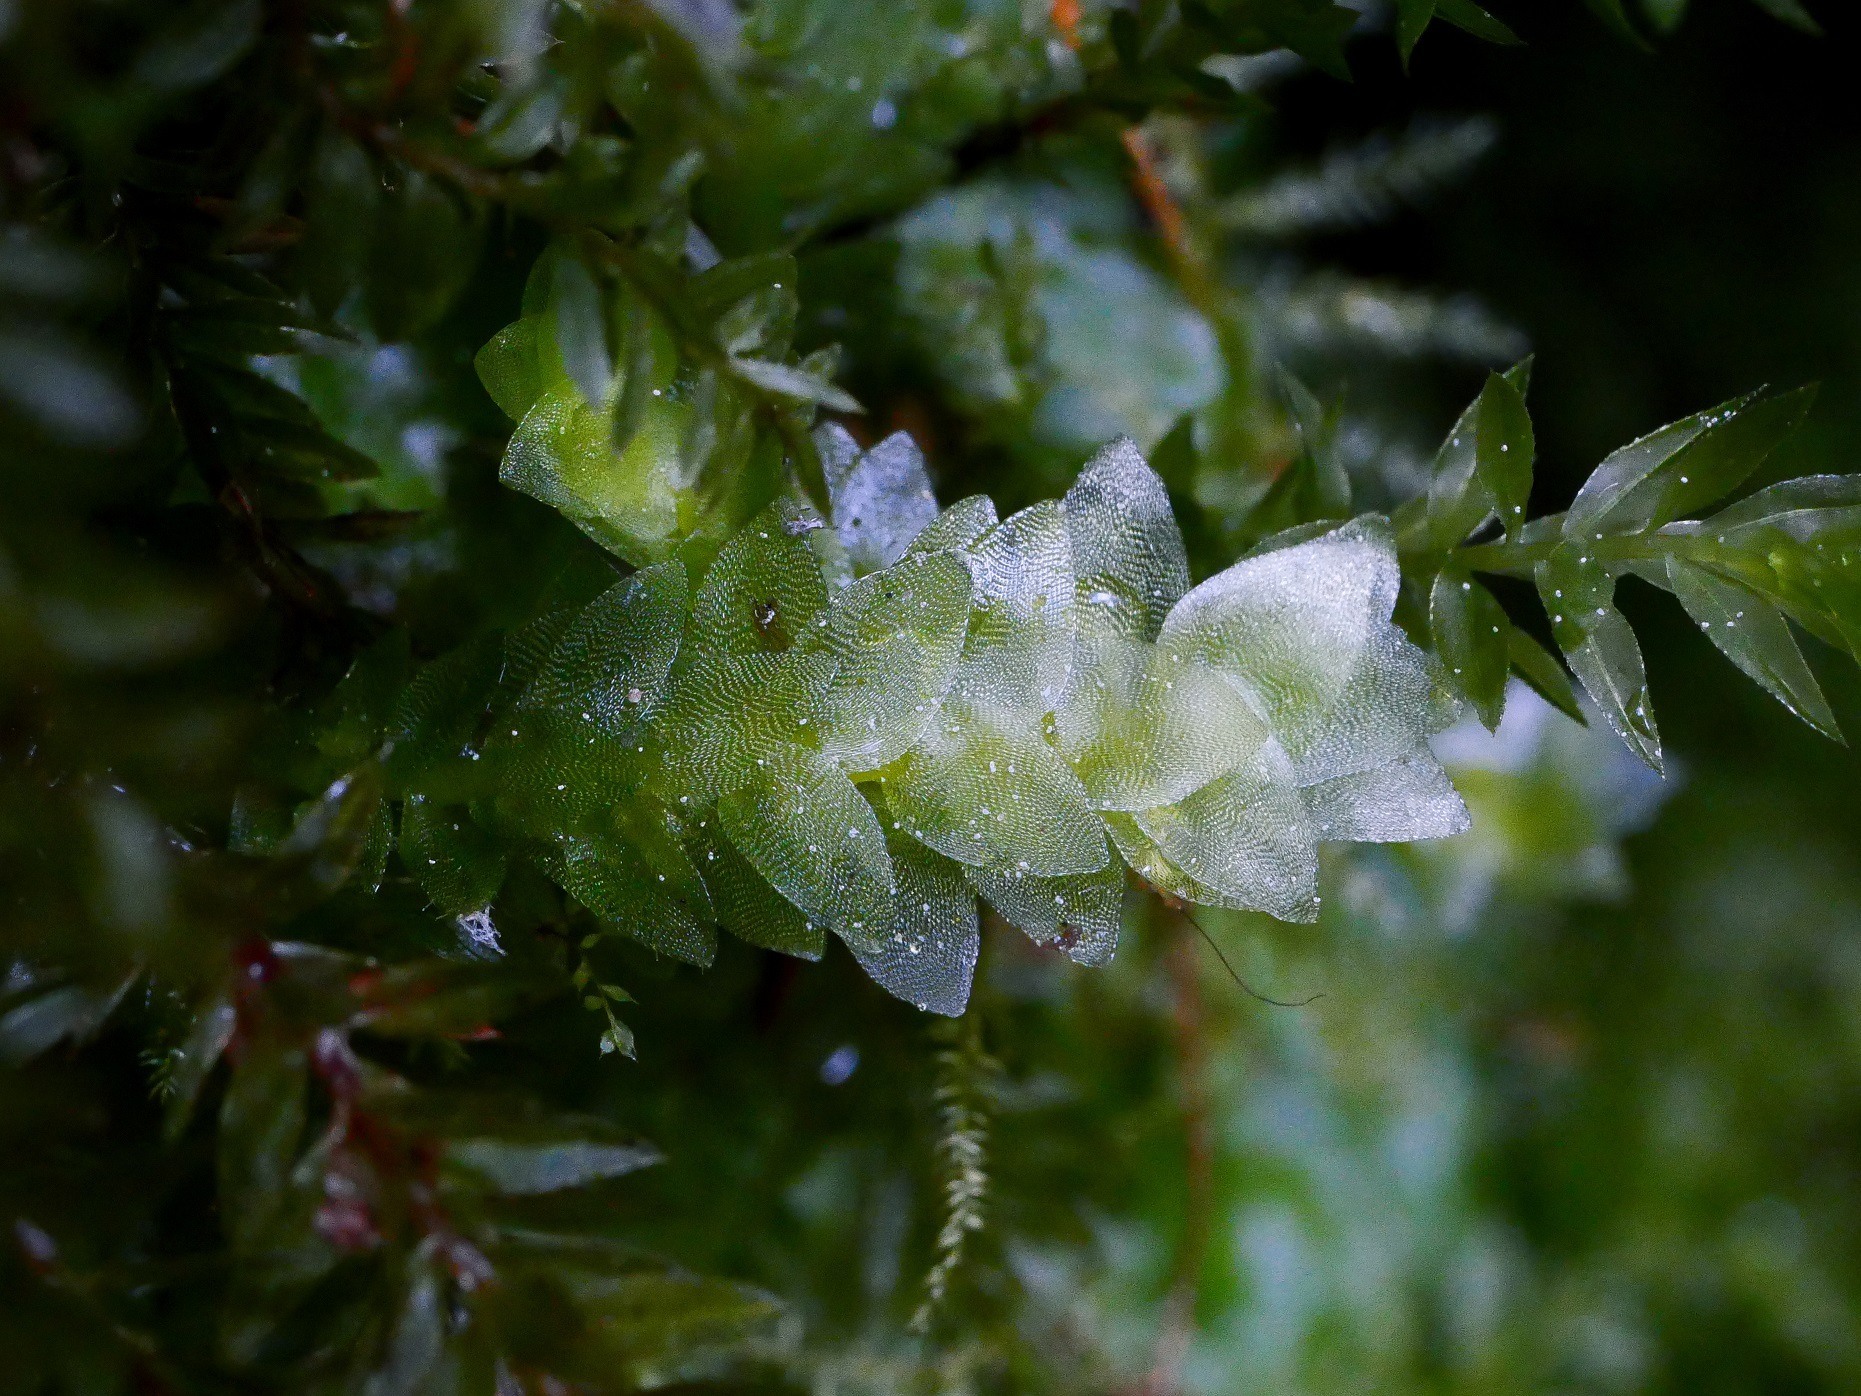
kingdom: Plantae
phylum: Bryophyta
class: Bryopsida
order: Hookeriales
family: Hookeriaceae
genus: Hookeria
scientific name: Hookeria lucens
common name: Skinnende dronningemos
